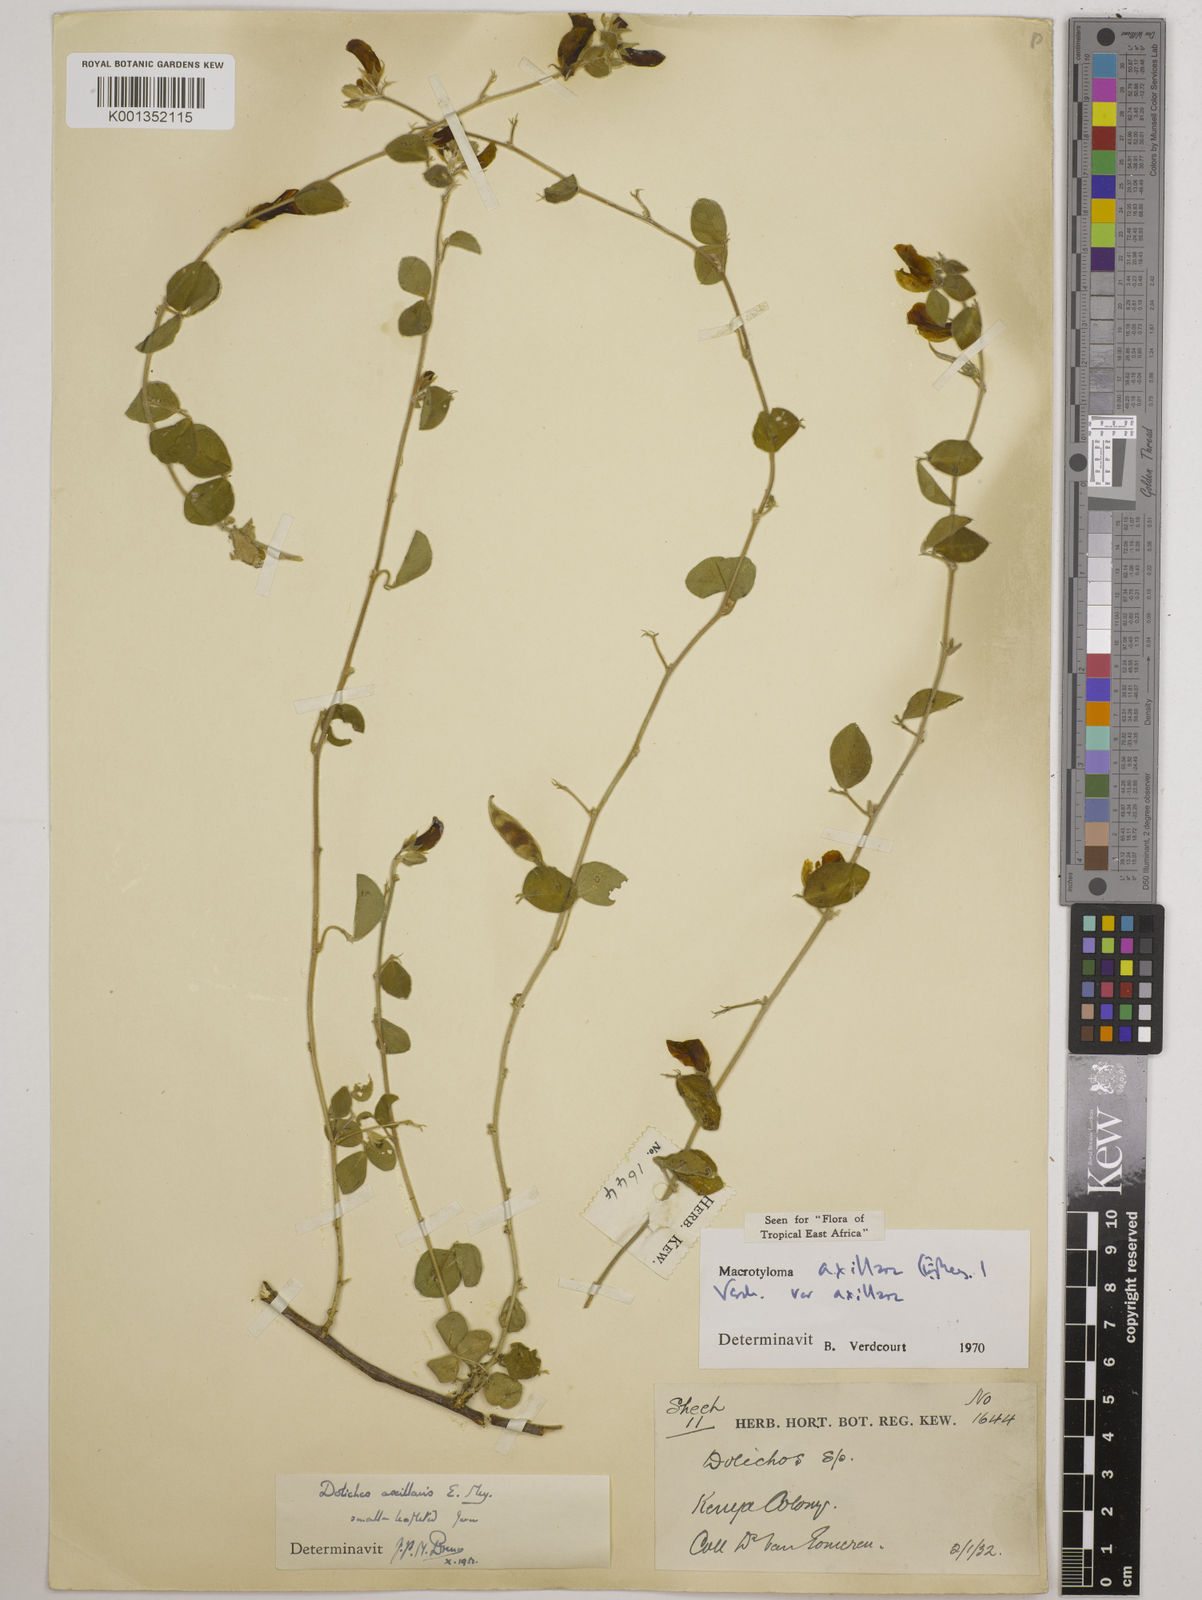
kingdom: Plantae
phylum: Tracheophyta
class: Magnoliopsida
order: Fabales
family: Fabaceae
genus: Macrotyloma
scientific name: Macrotyloma axillare
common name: Perennial horsegram
